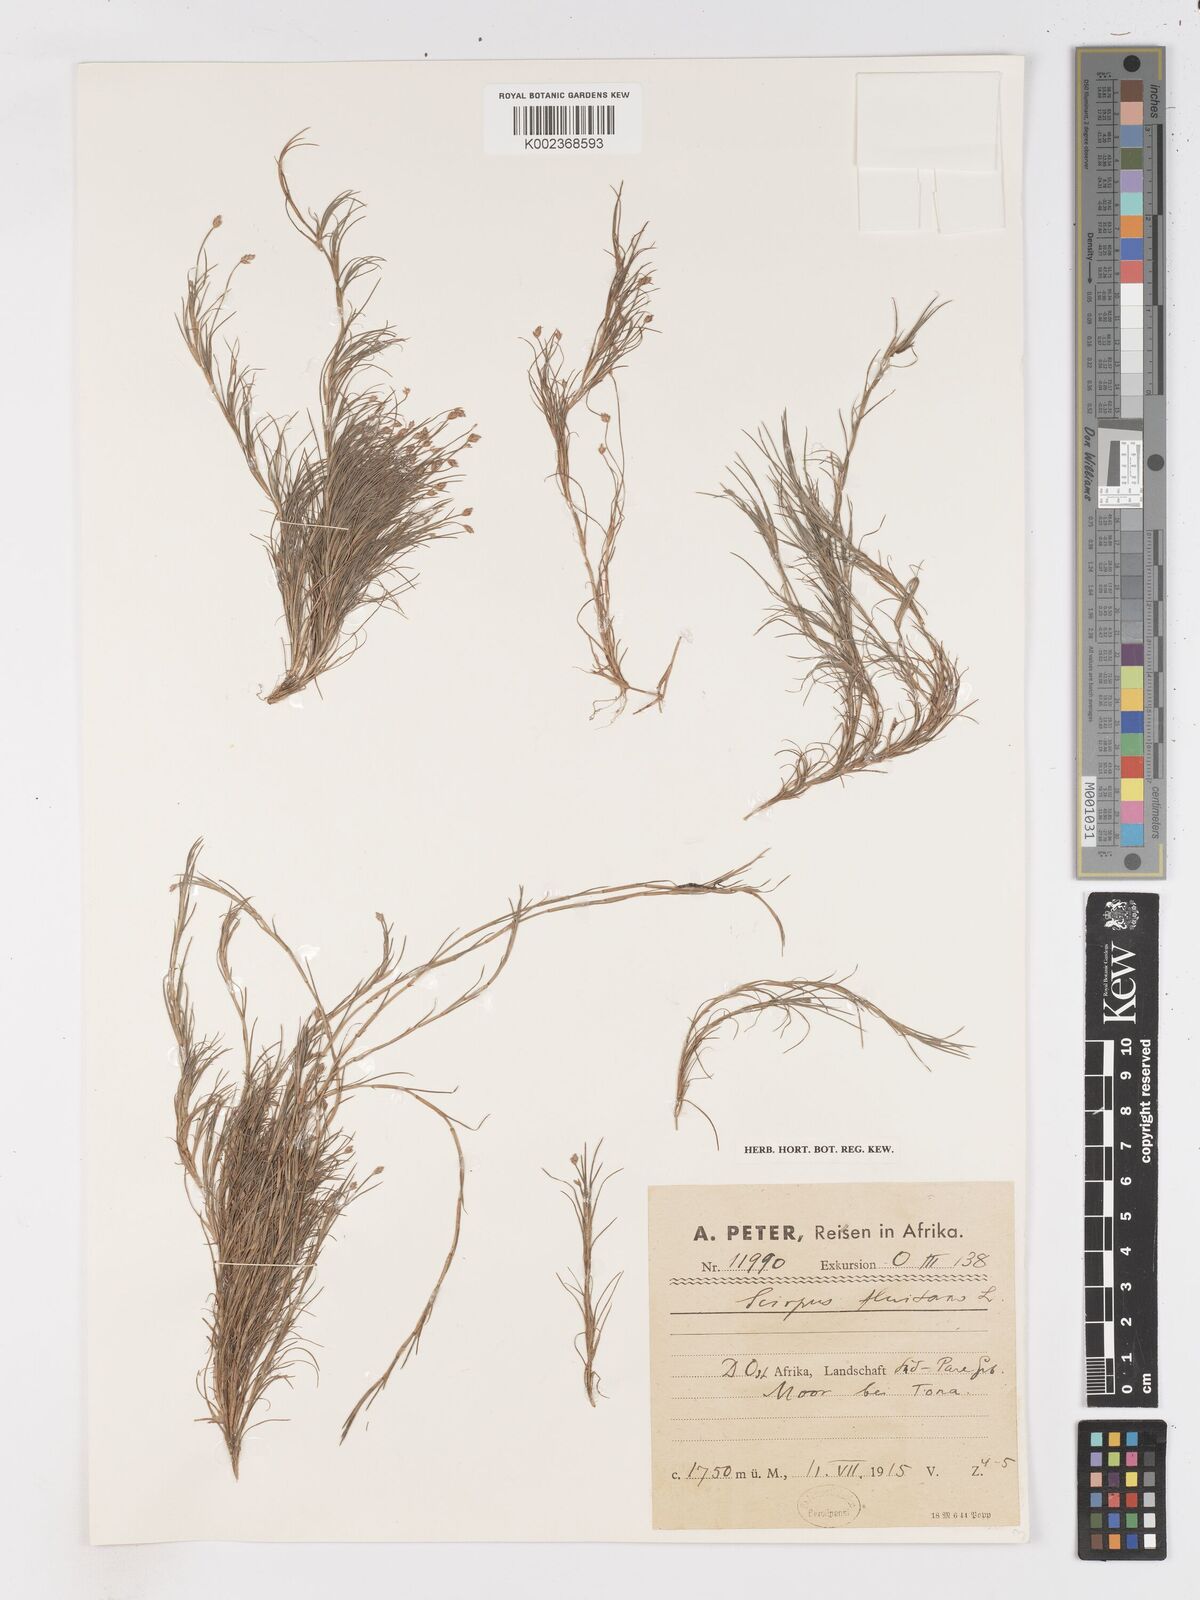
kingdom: Plantae
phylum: Tracheophyta
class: Liliopsida
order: Poales
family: Cyperaceae
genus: Isolepis
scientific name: Isolepis fluitans
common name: Floating club-rush
